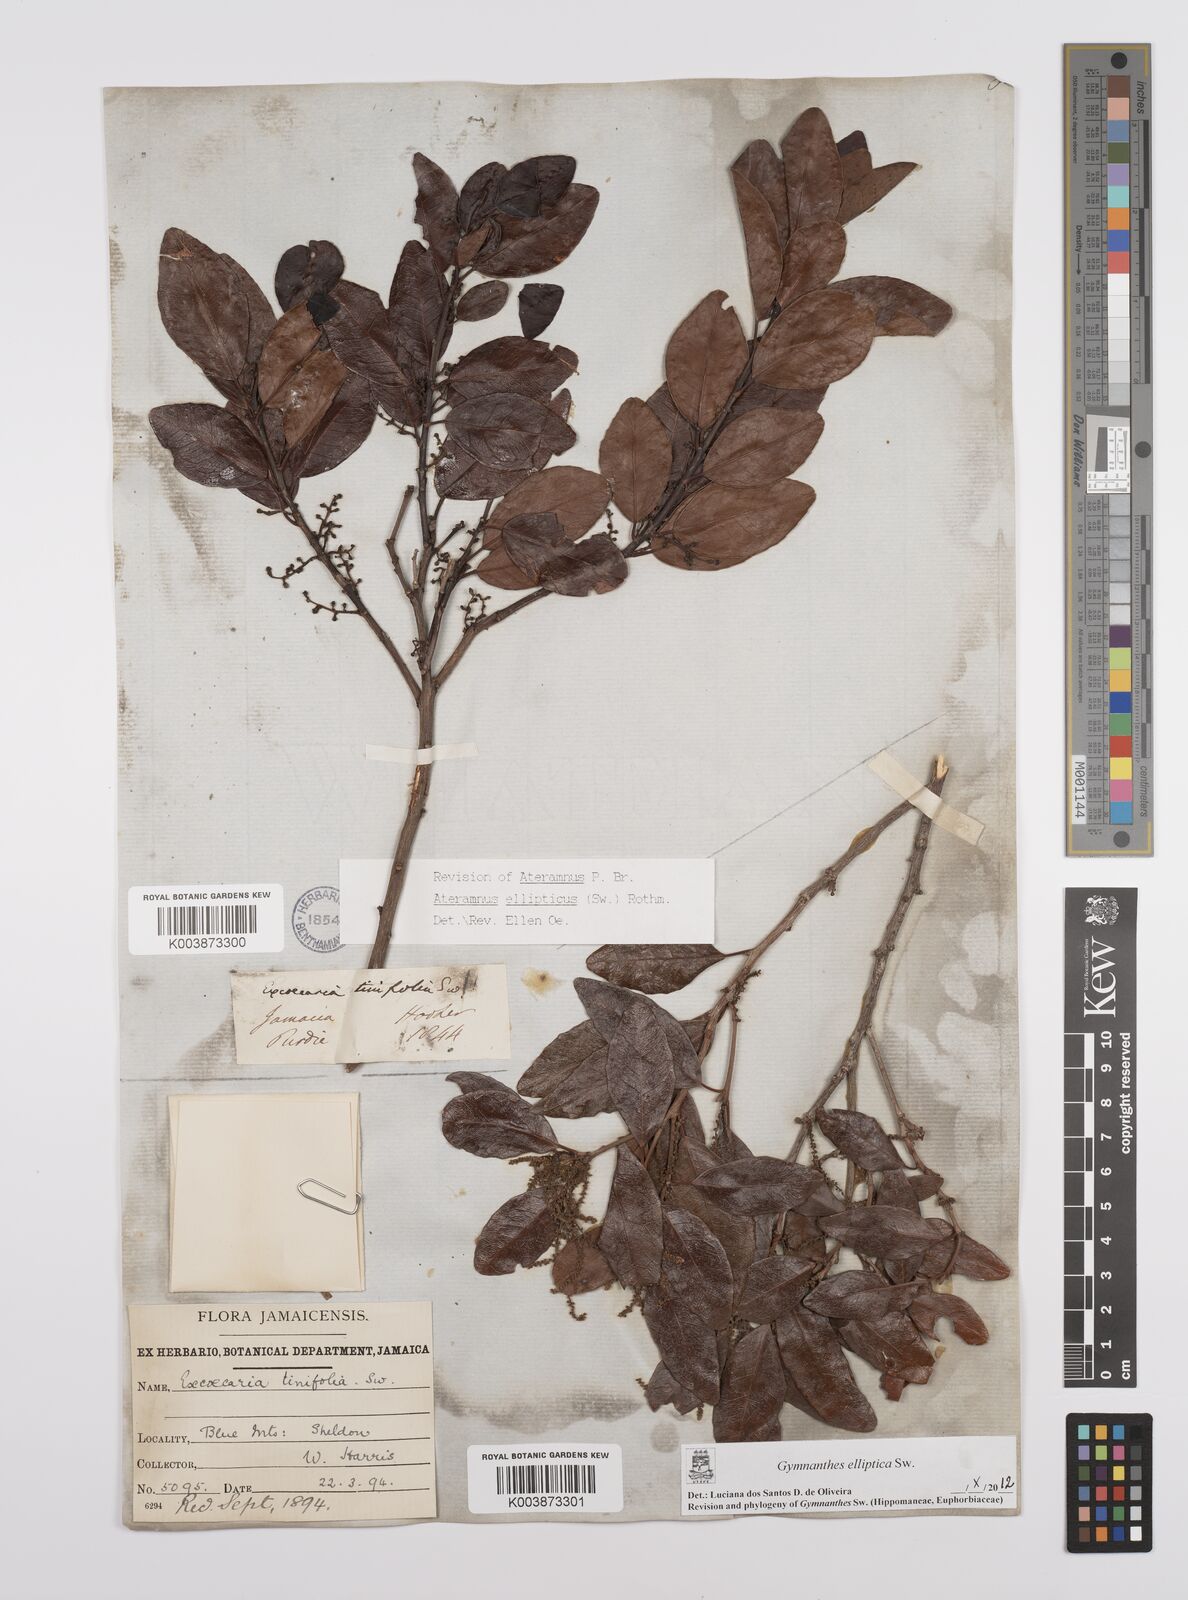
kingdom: Plantae
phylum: Tracheophyta
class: Magnoliopsida
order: Malpighiales
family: Euphorbiaceae
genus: Dendrocousinsia
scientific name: Dendrocousinsia elliptica
